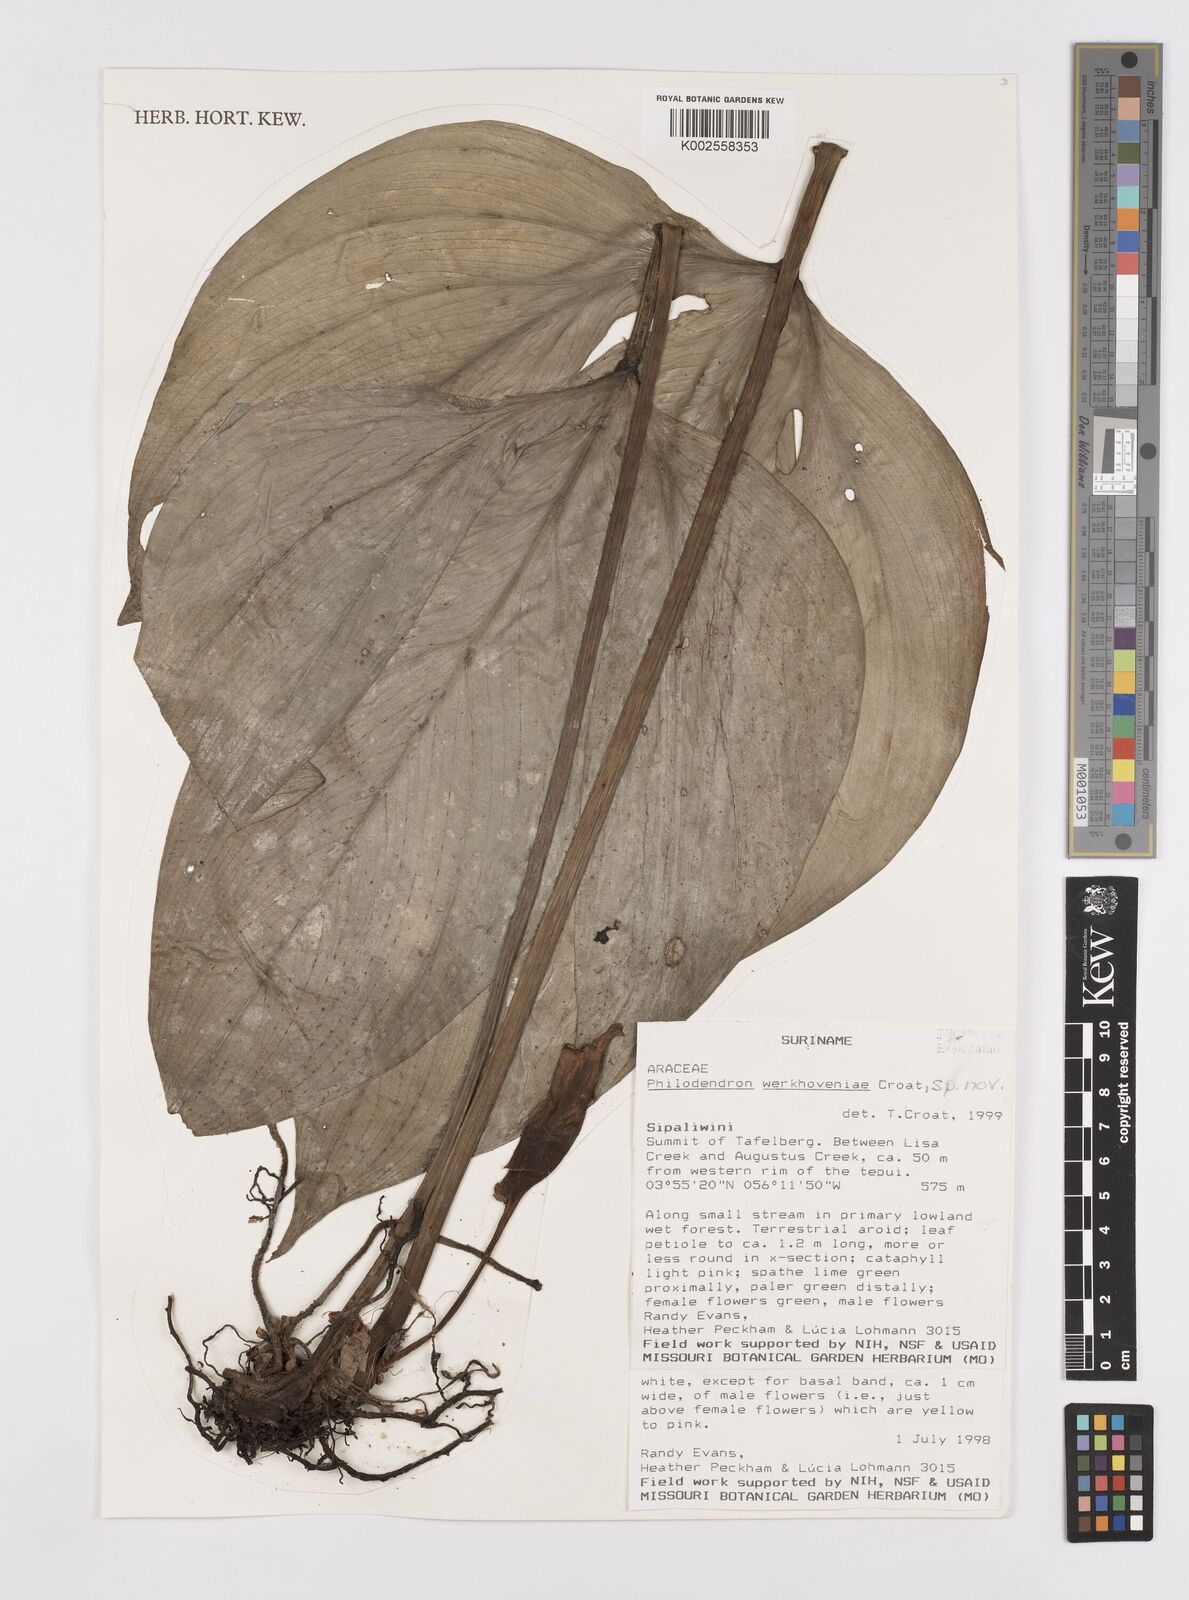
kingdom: Plantae
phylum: Tracheophyta
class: Liliopsida
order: Alismatales
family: Araceae
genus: Philodendron
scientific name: Philodendron werkhoveniae
